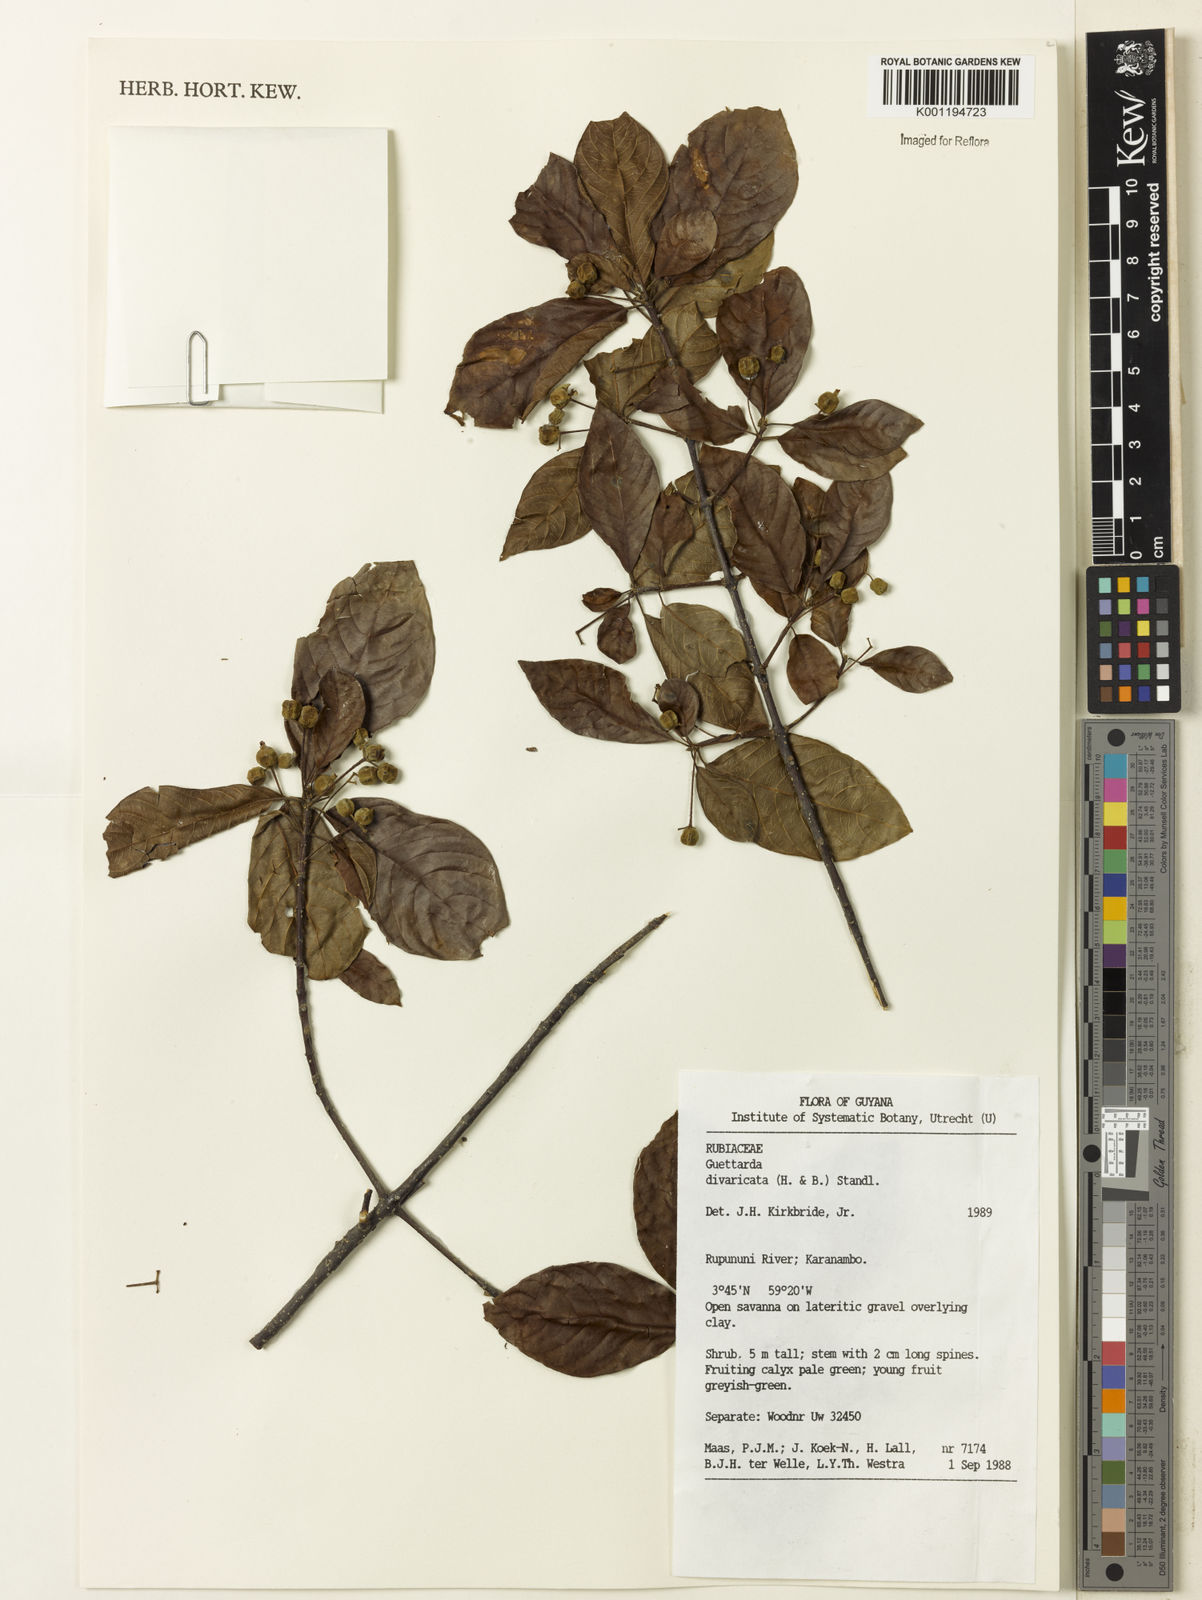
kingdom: Plantae
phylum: Tracheophyta
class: Magnoliopsida
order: Gentianales
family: Rubiaceae
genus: Guettarda
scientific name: Guettarda divaricata
